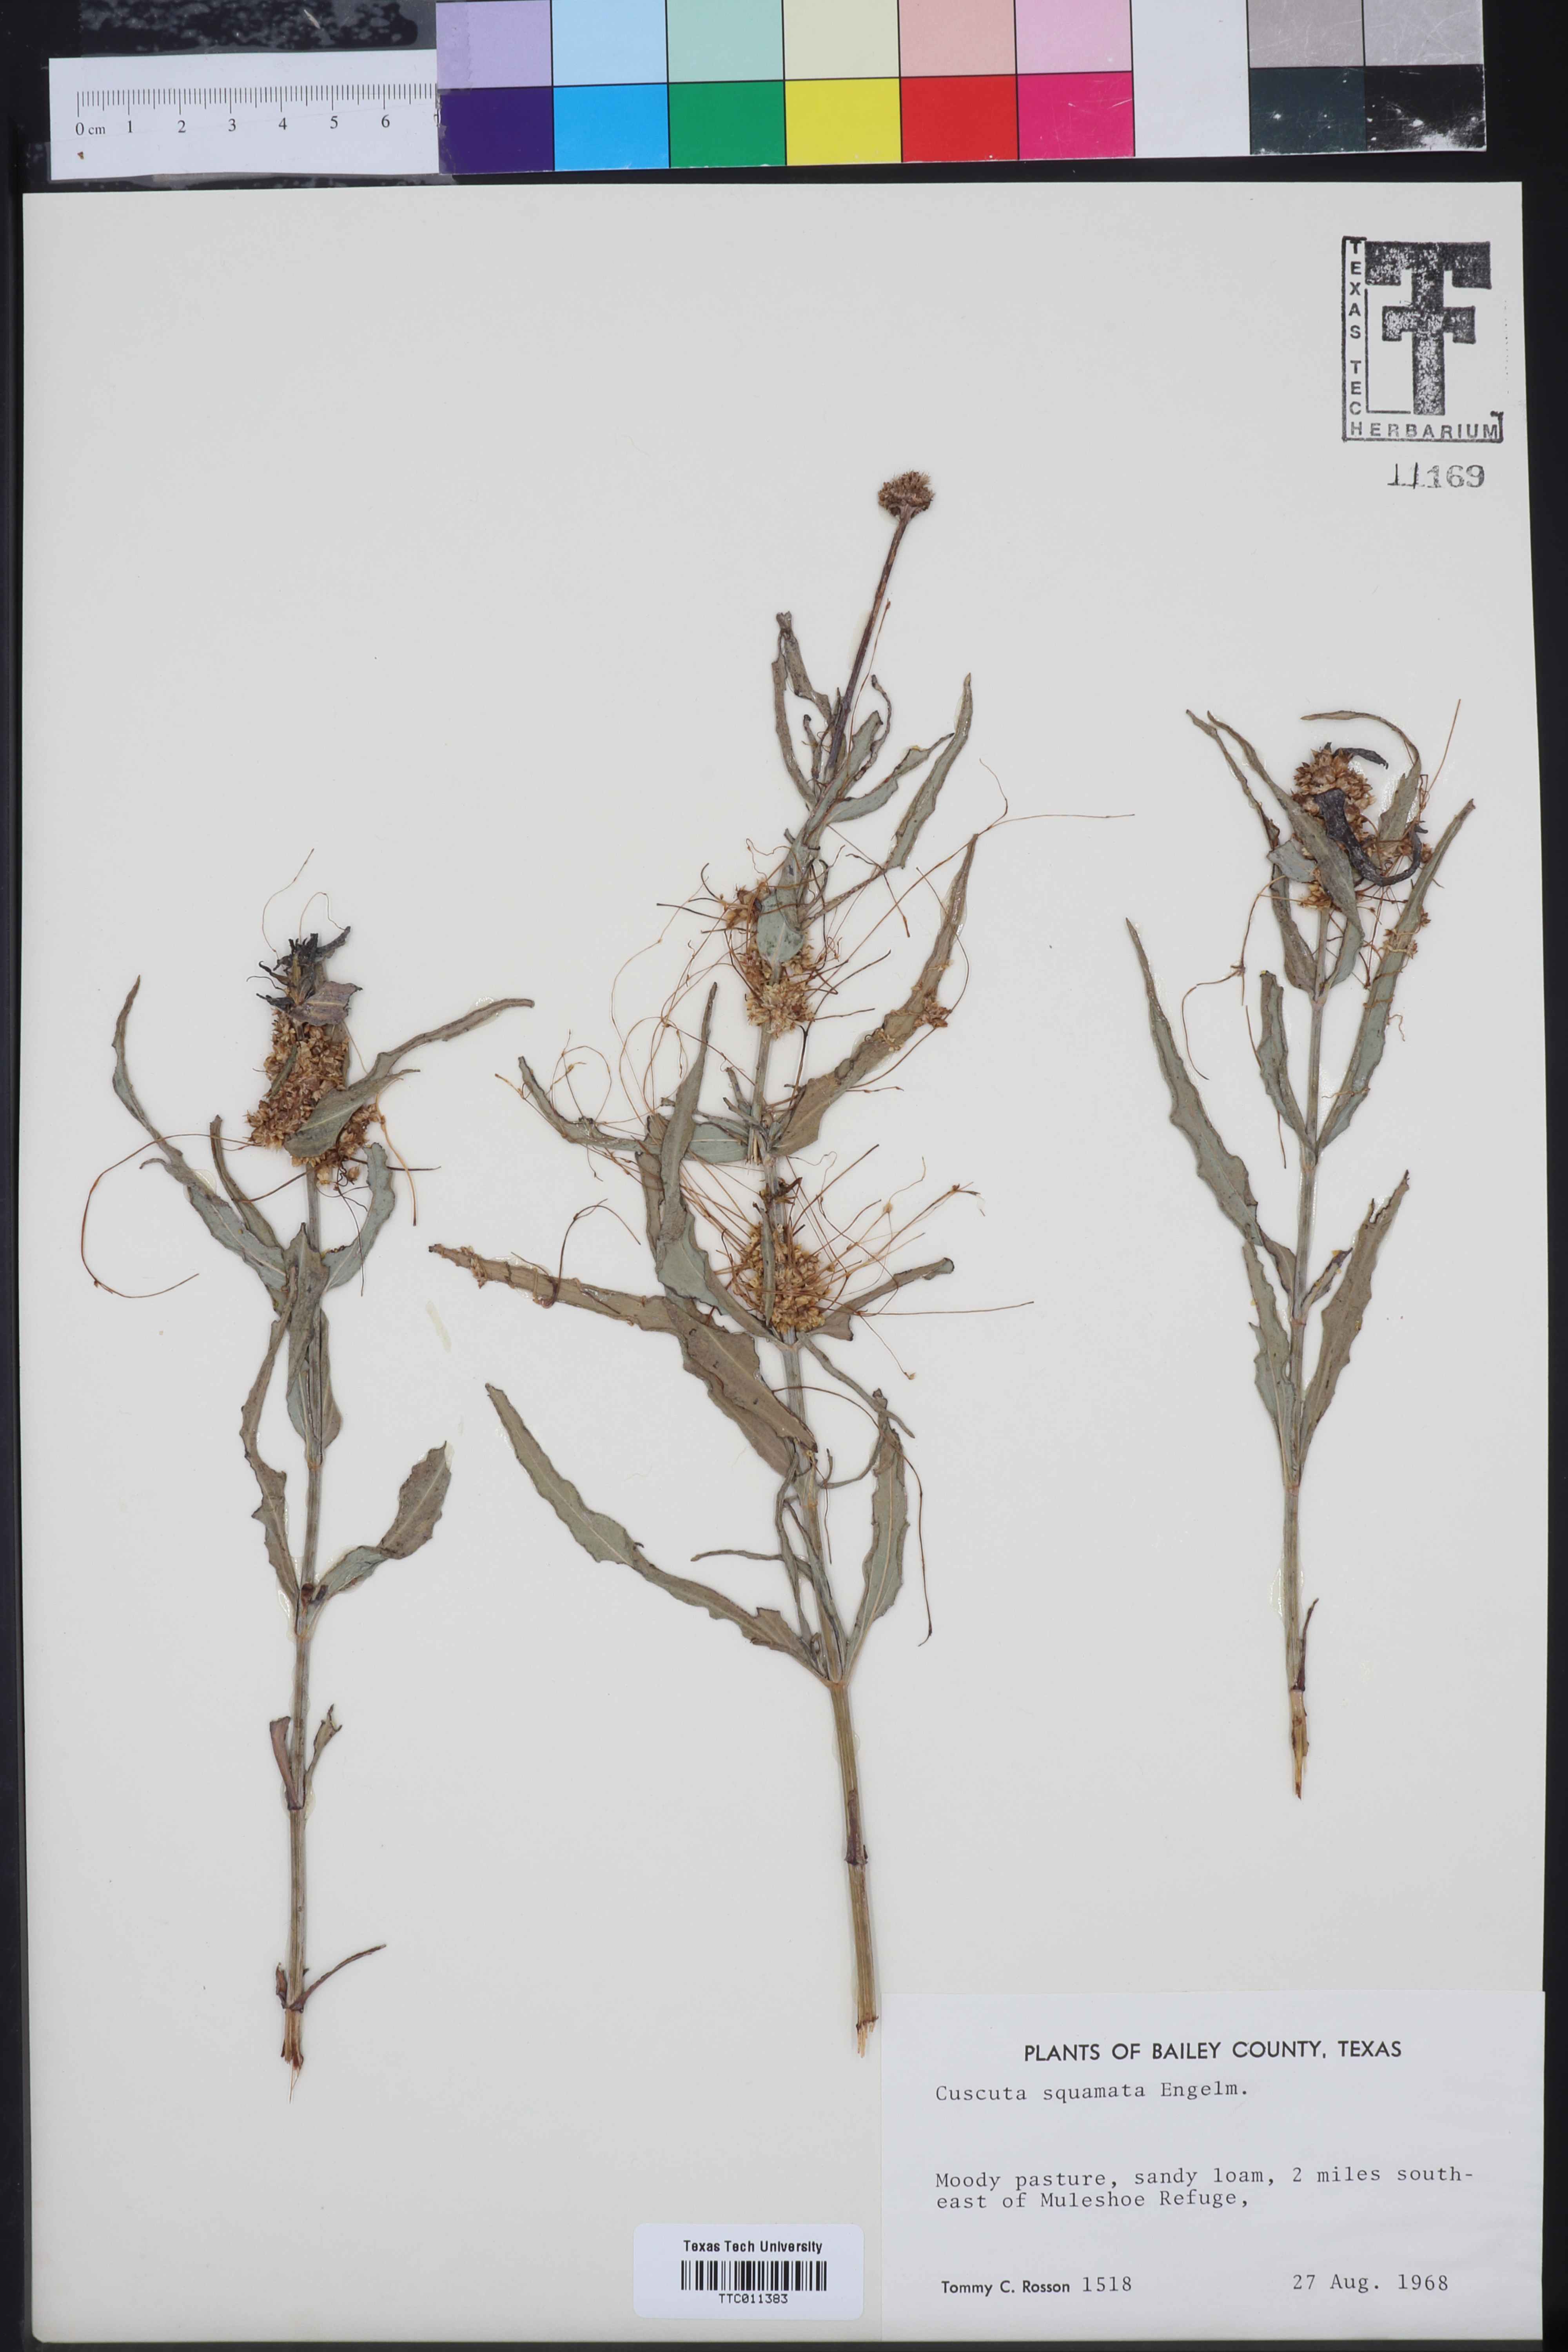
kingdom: Plantae
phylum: Tracheophyta
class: Magnoliopsida
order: Solanales
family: Convolvulaceae
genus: Cuscuta
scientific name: Cuscuta squamata
